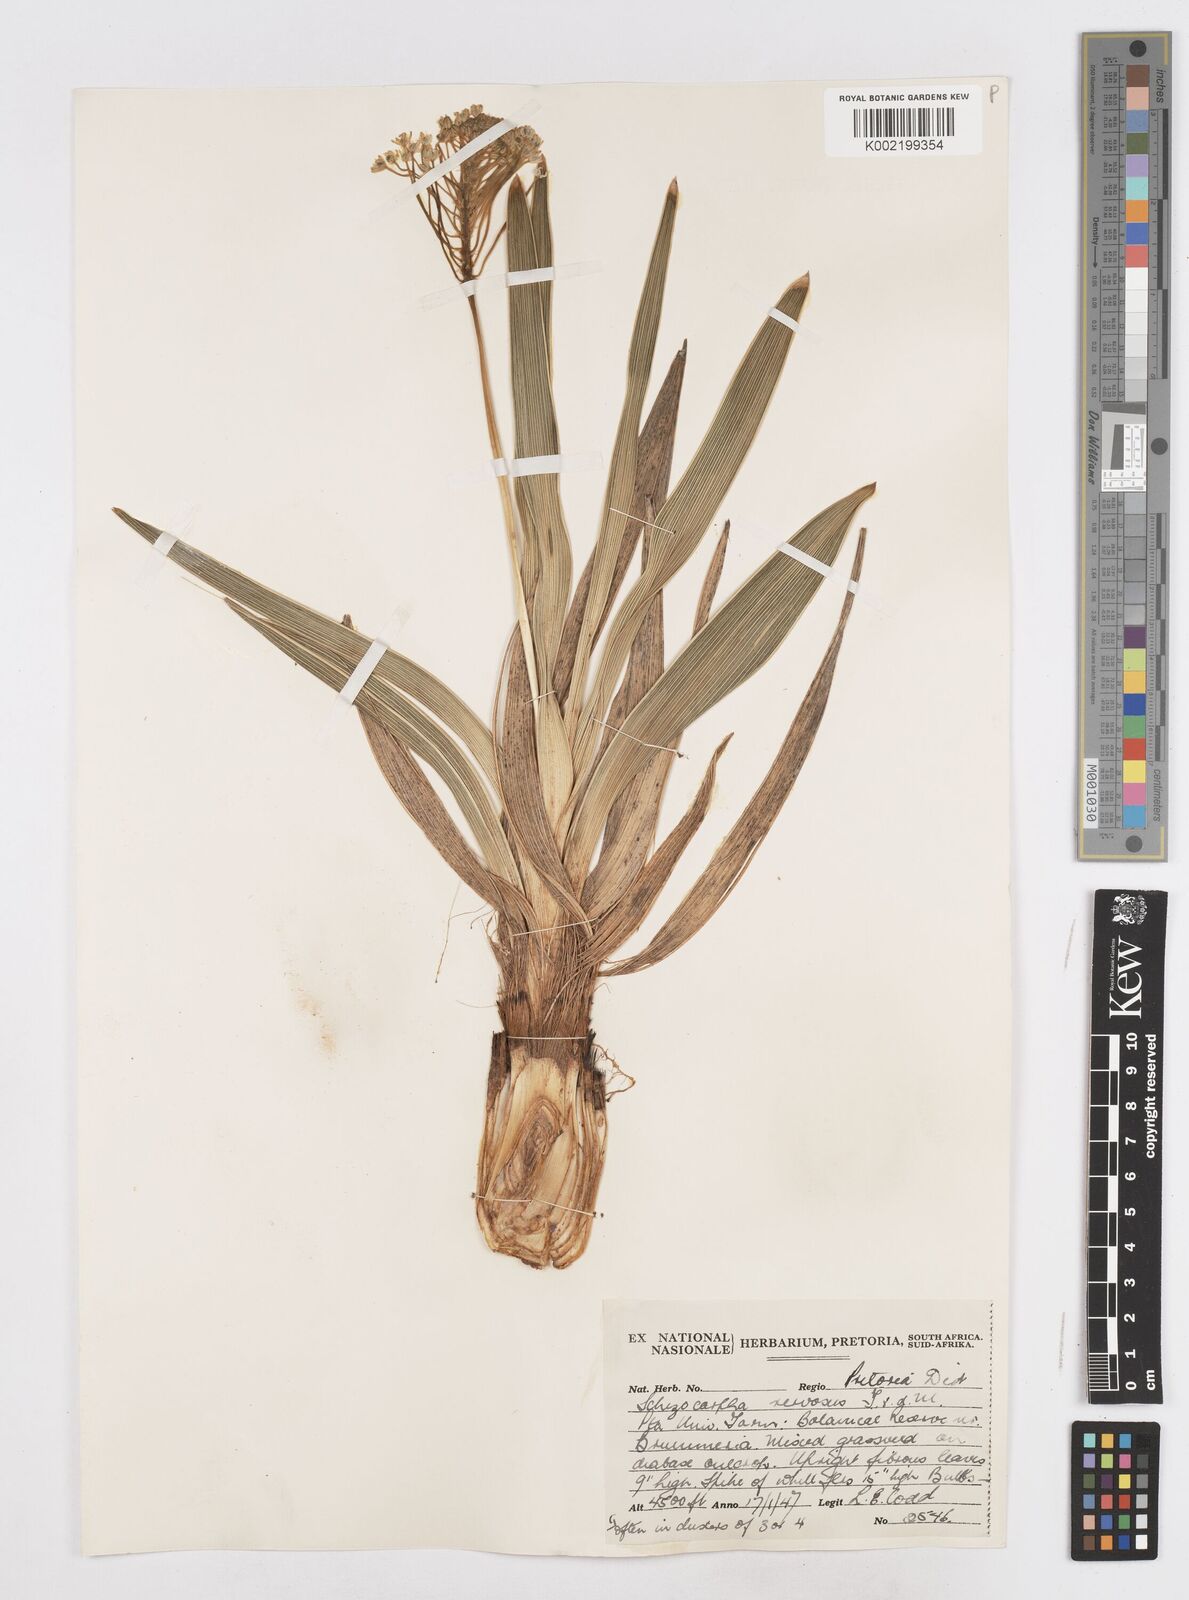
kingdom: Plantae
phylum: Tracheophyta
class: Liliopsida
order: Asparagales
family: Asparagaceae
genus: Schizocarphus
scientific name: Schizocarphus nervosus
